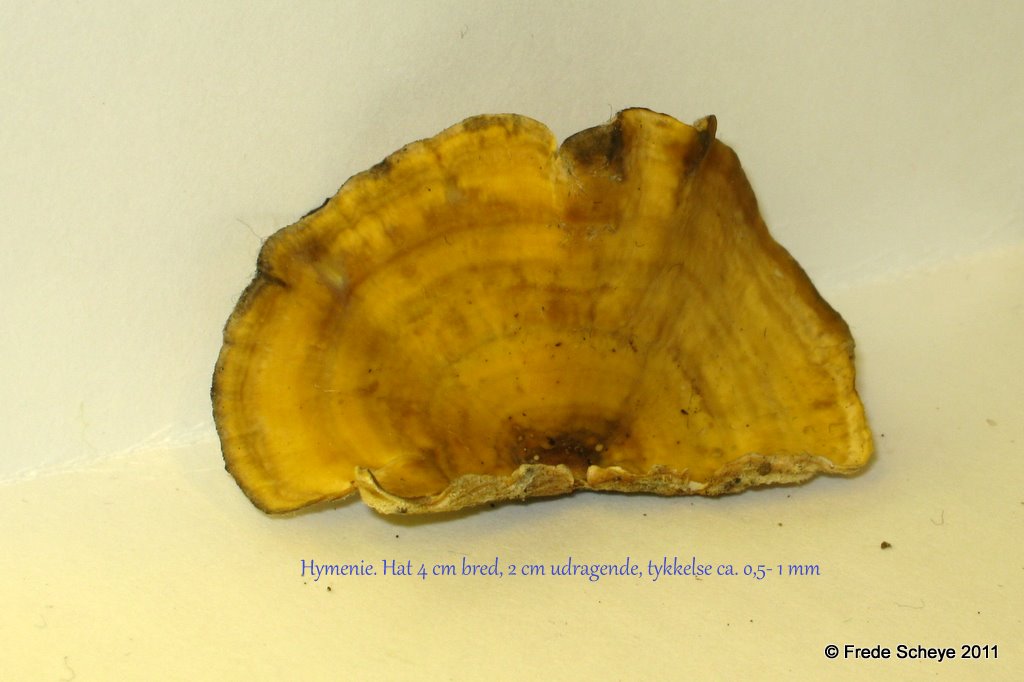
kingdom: Fungi
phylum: Basidiomycota
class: Agaricomycetes
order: Russulales
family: Stereaceae
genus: Stereum
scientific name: Stereum subtomentosum
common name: smuk lædersvamp
